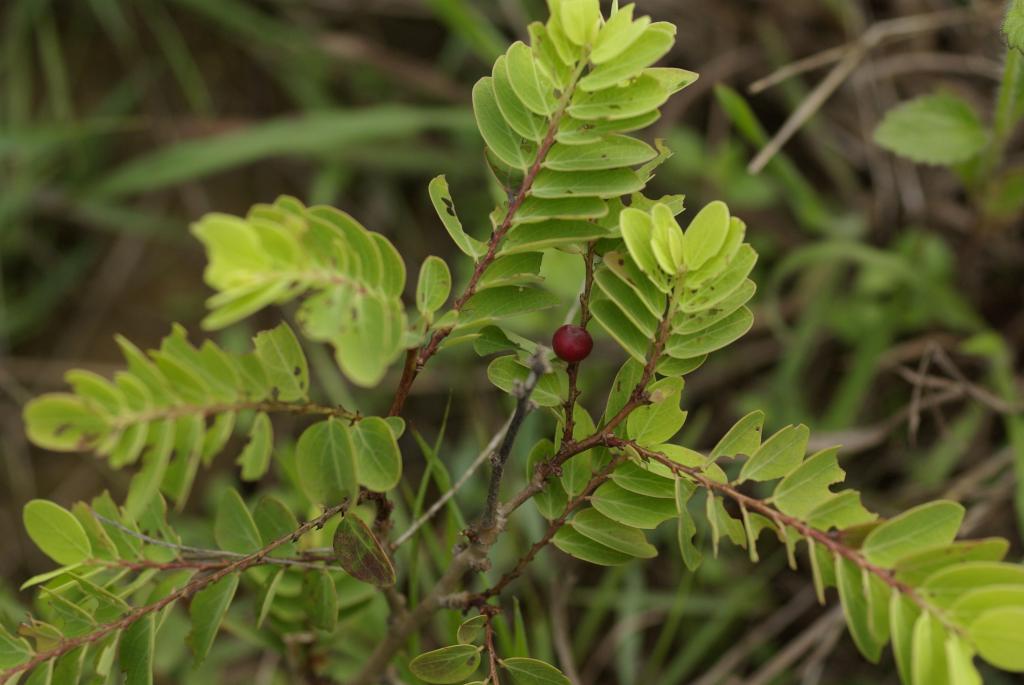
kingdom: Plantae
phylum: Tracheophyta
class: Magnoliopsida
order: Malpighiales
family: Phyllanthaceae
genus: Breynia
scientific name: Breynia officinalis
